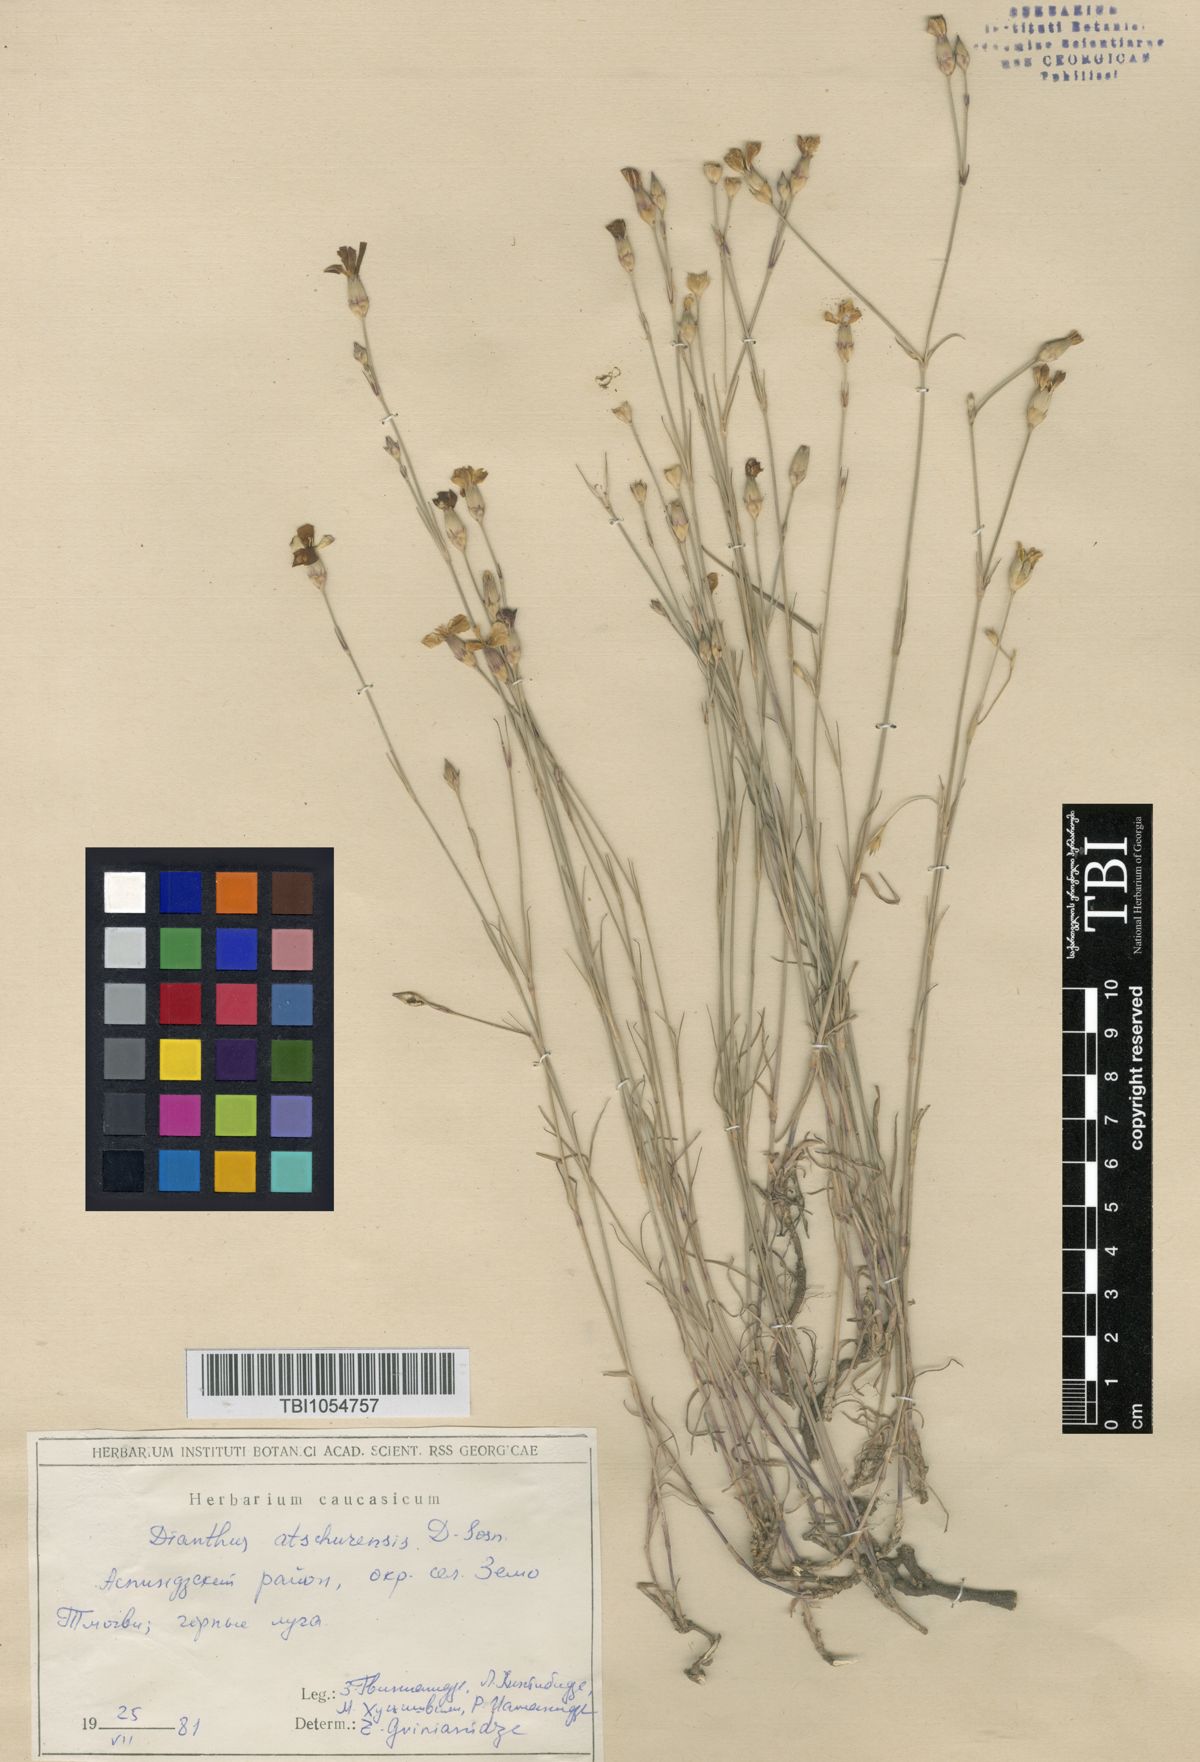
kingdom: Plantae
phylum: Tracheophyta
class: Magnoliopsida
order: Caryophyllales
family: Caryophyllaceae
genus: Dianthus
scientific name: Dianthus
